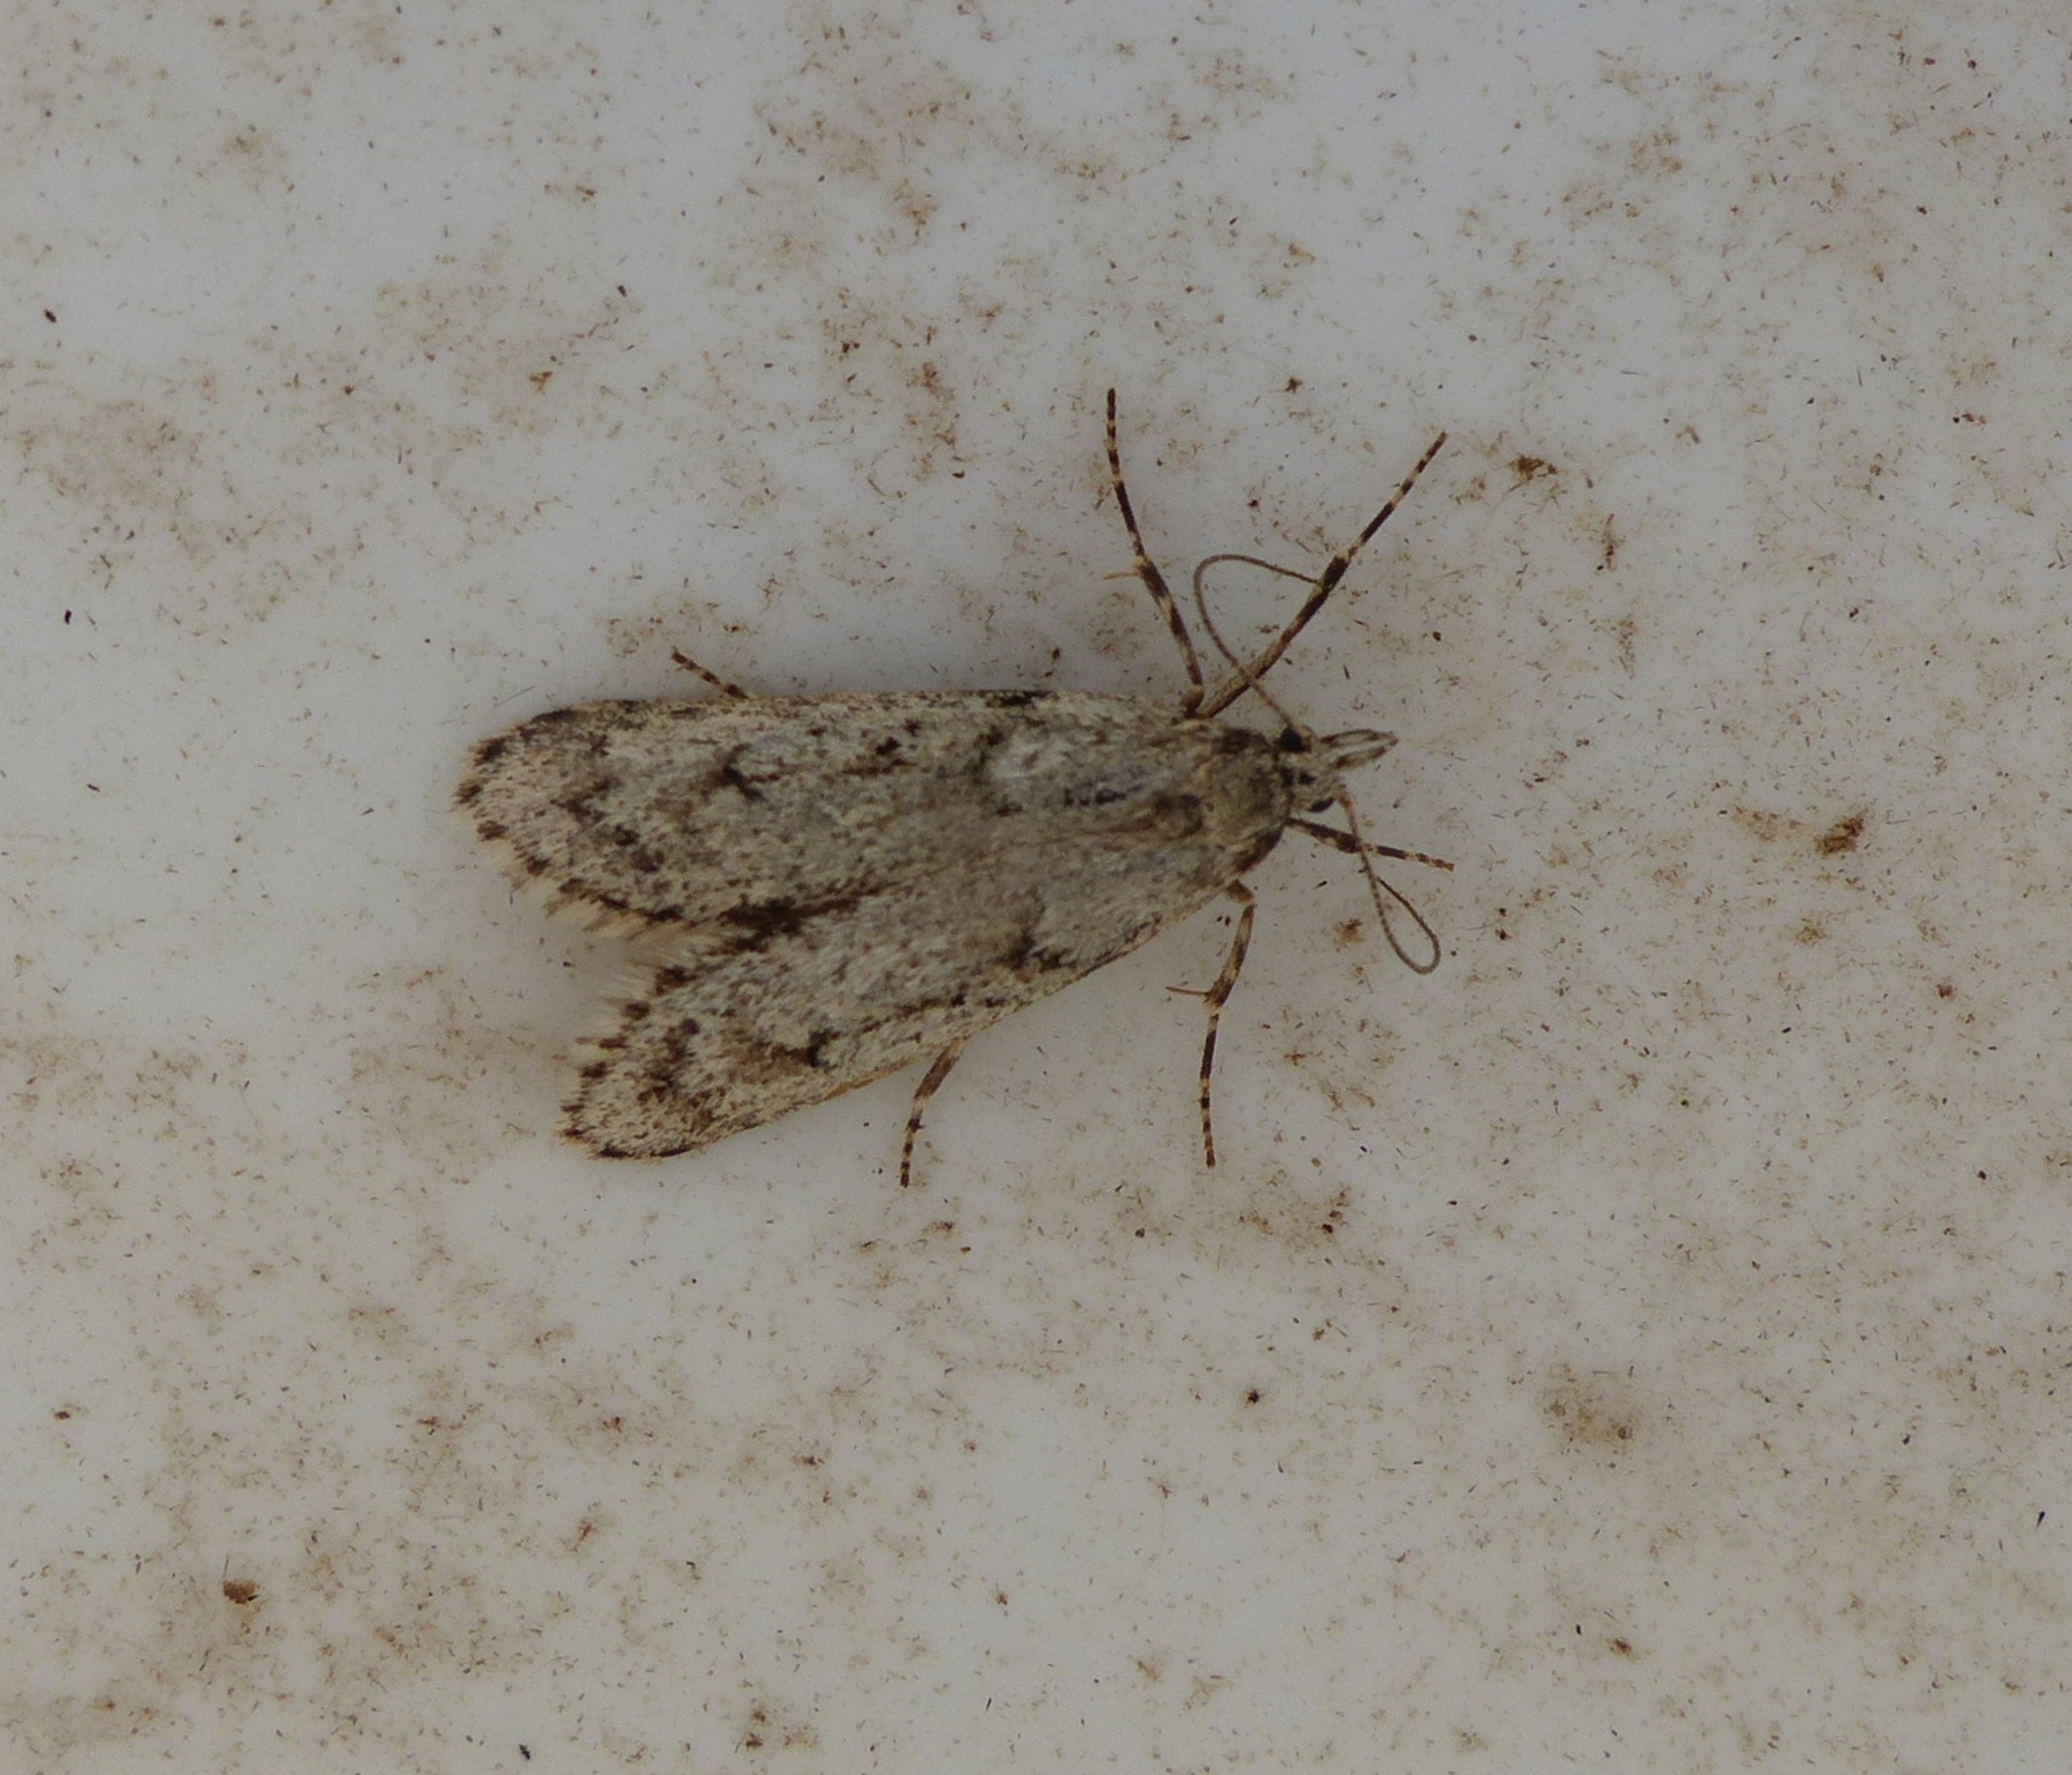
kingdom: Animalia
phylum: Arthropoda
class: Insecta
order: Lepidoptera
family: Lypusidae
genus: Diurnea
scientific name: Diurnea fagella
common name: Bøgeprydvinge
